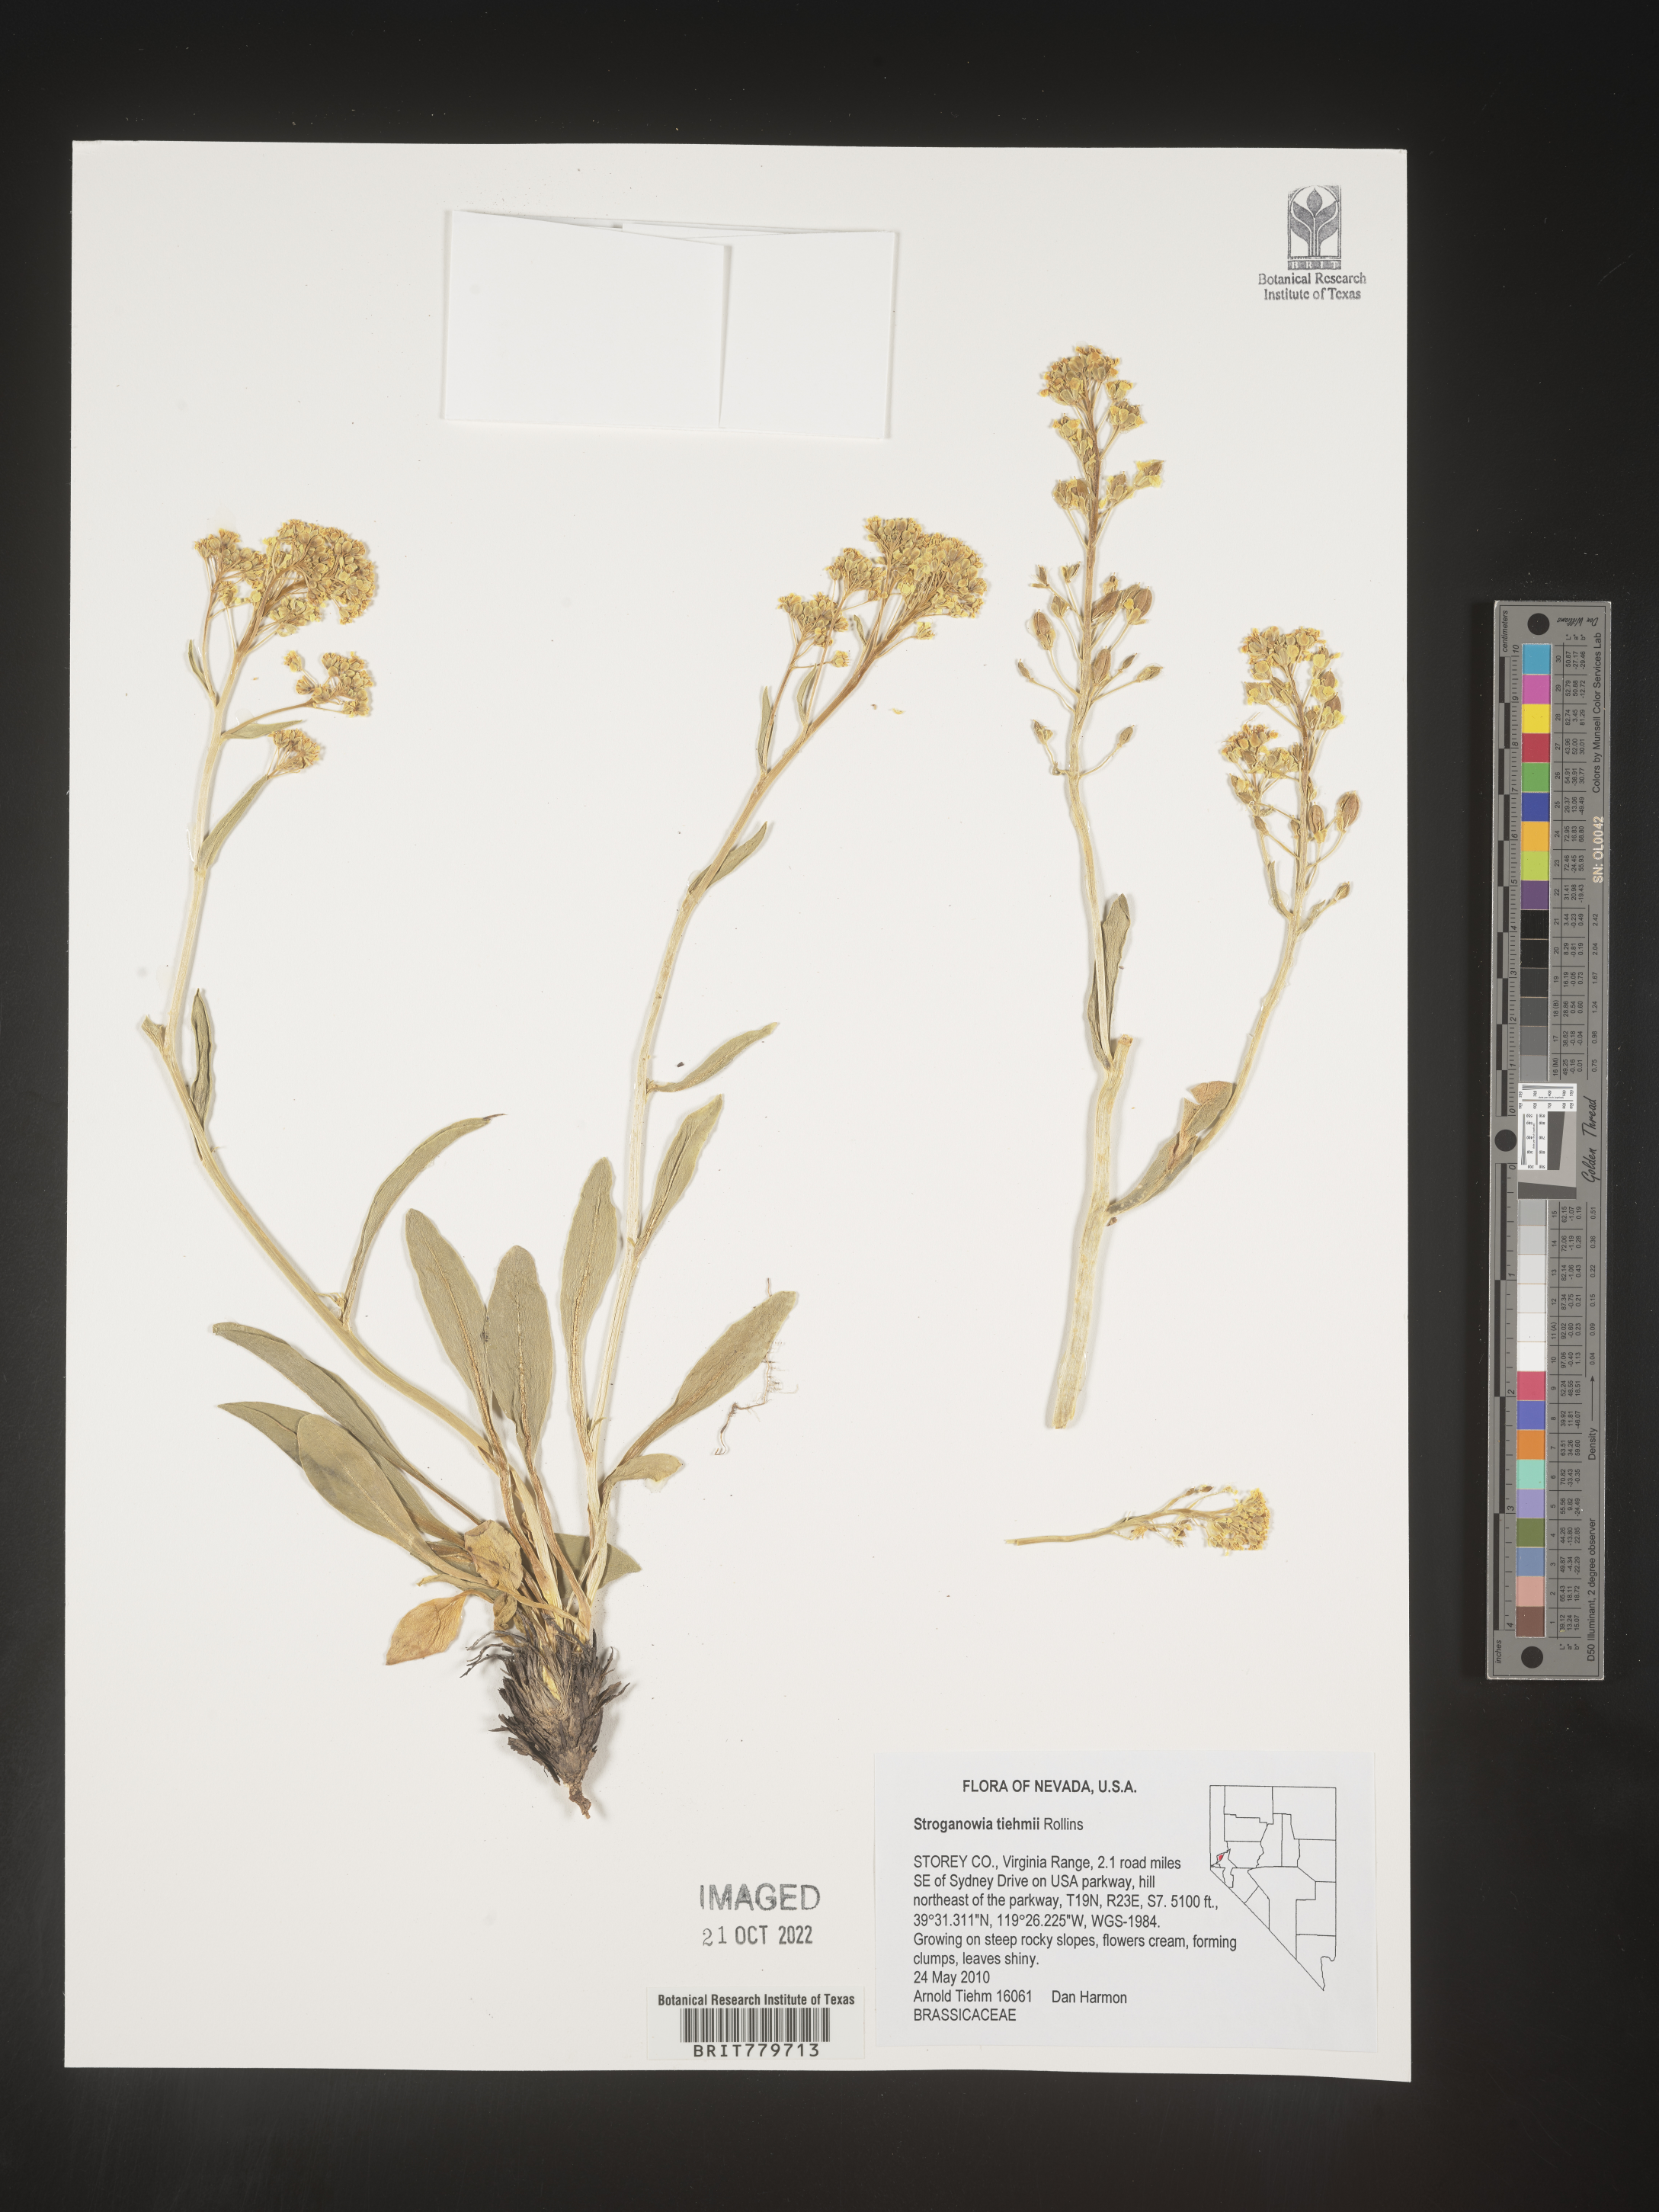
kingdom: Plantae
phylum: Tracheophyta
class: Magnoliopsida
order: Brassicales
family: Brassicaceae
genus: Lepidium
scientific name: Lepidium
